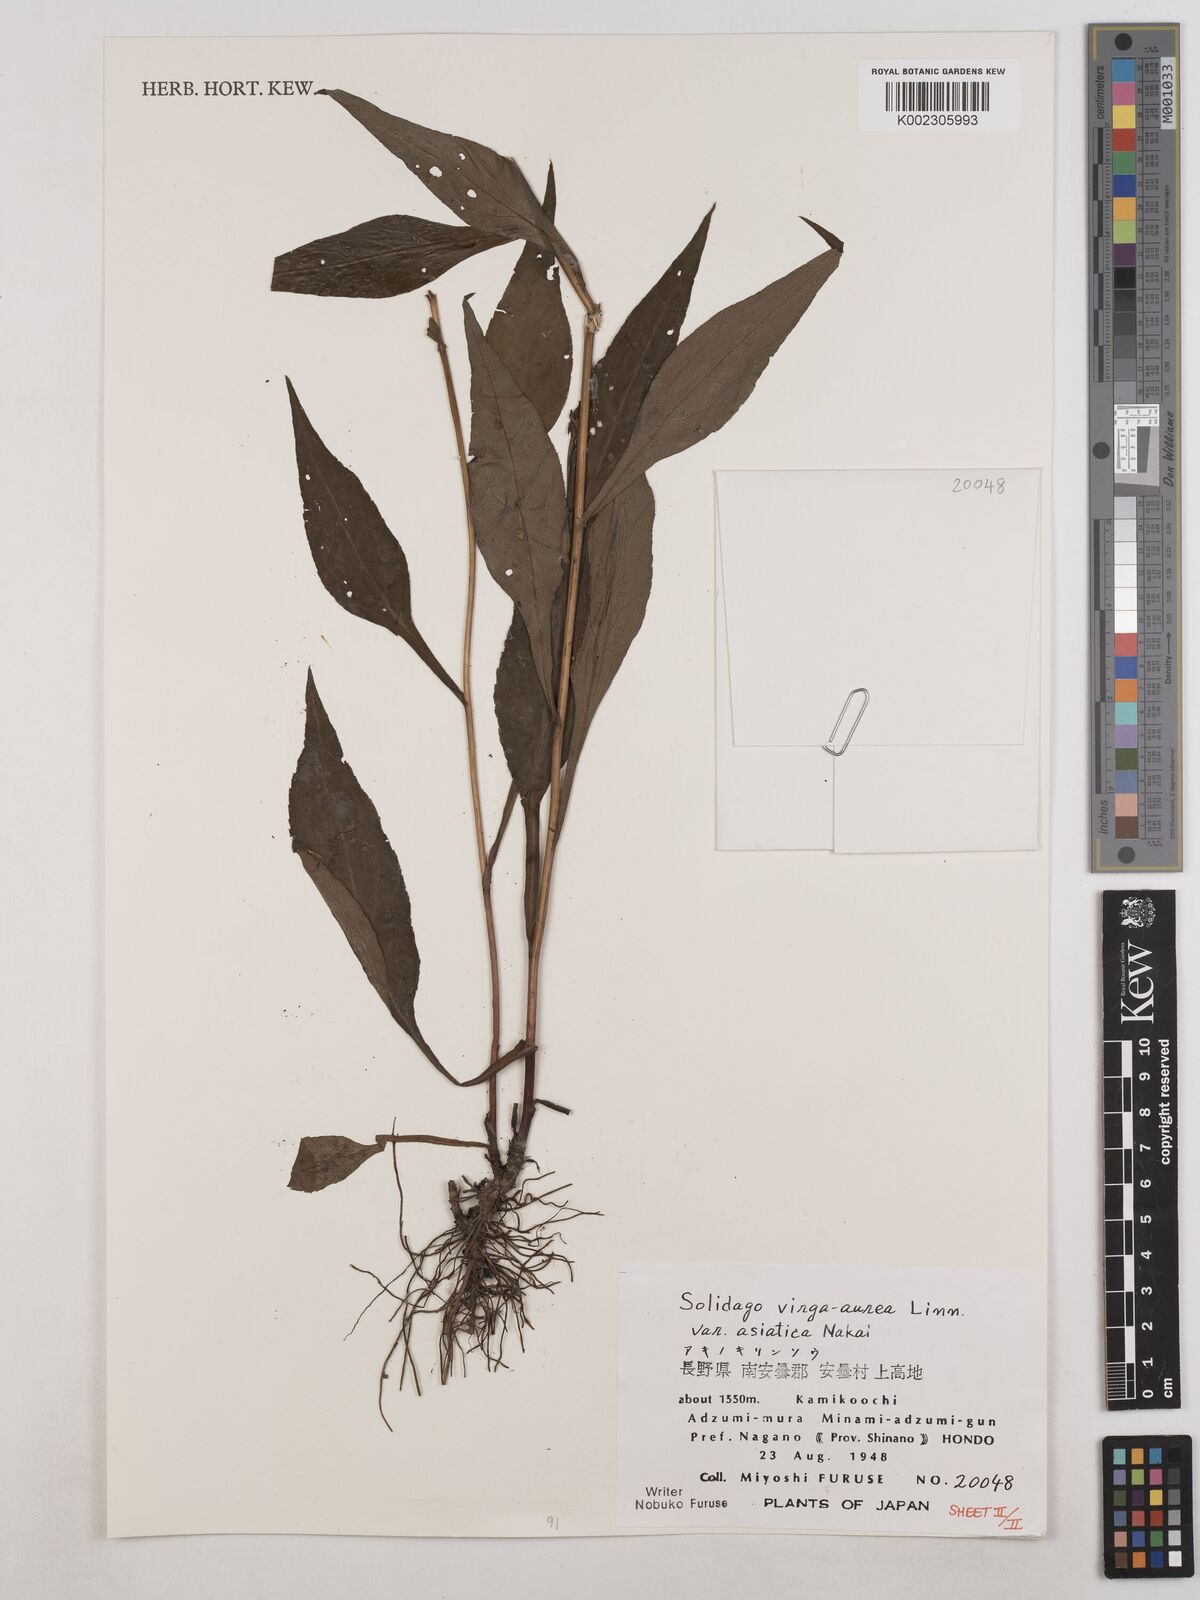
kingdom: Plantae
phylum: Tracheophyta
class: Magnoliopsida
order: Asterales
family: Asteraceae
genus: Solidago
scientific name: Solidago virgaurea
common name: Goldenrod
